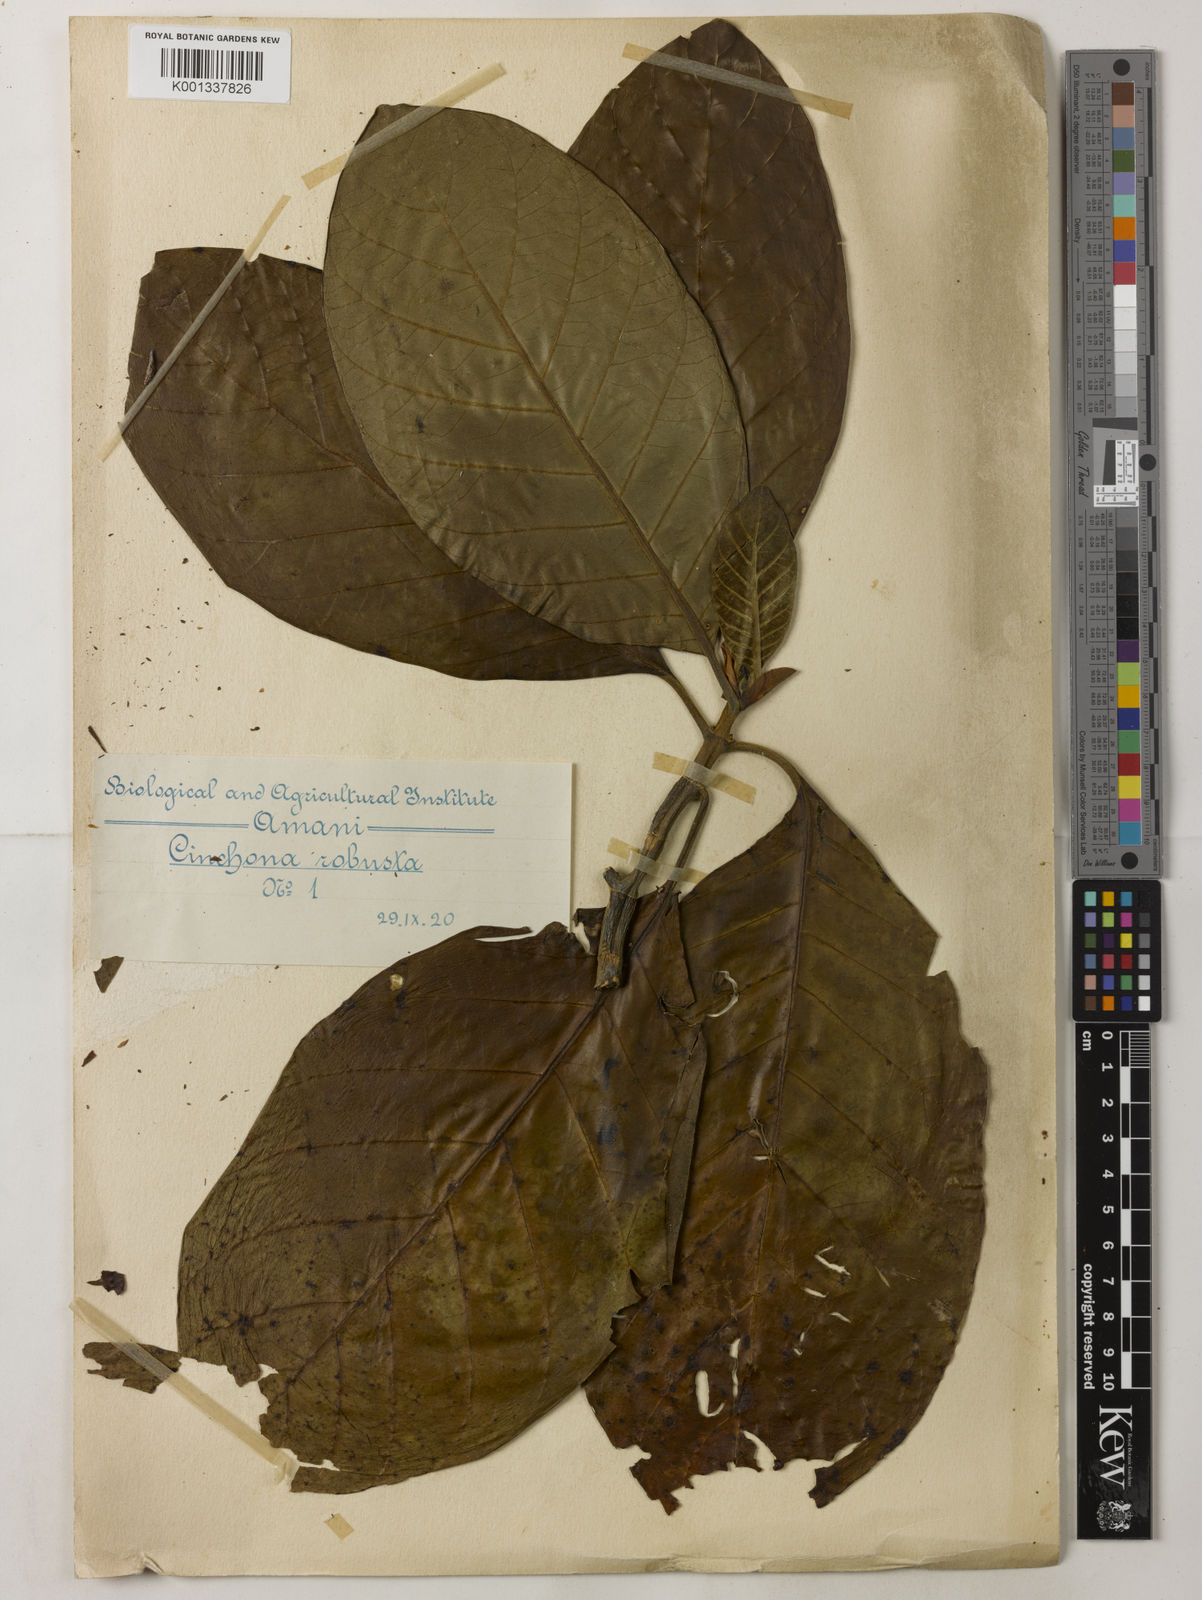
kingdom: Plantae
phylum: Tracheophyta
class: Magnoliopsida
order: Gentianales
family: Rubiaceae
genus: Cinchona
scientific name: Cinchona officinalis
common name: Lojabark
